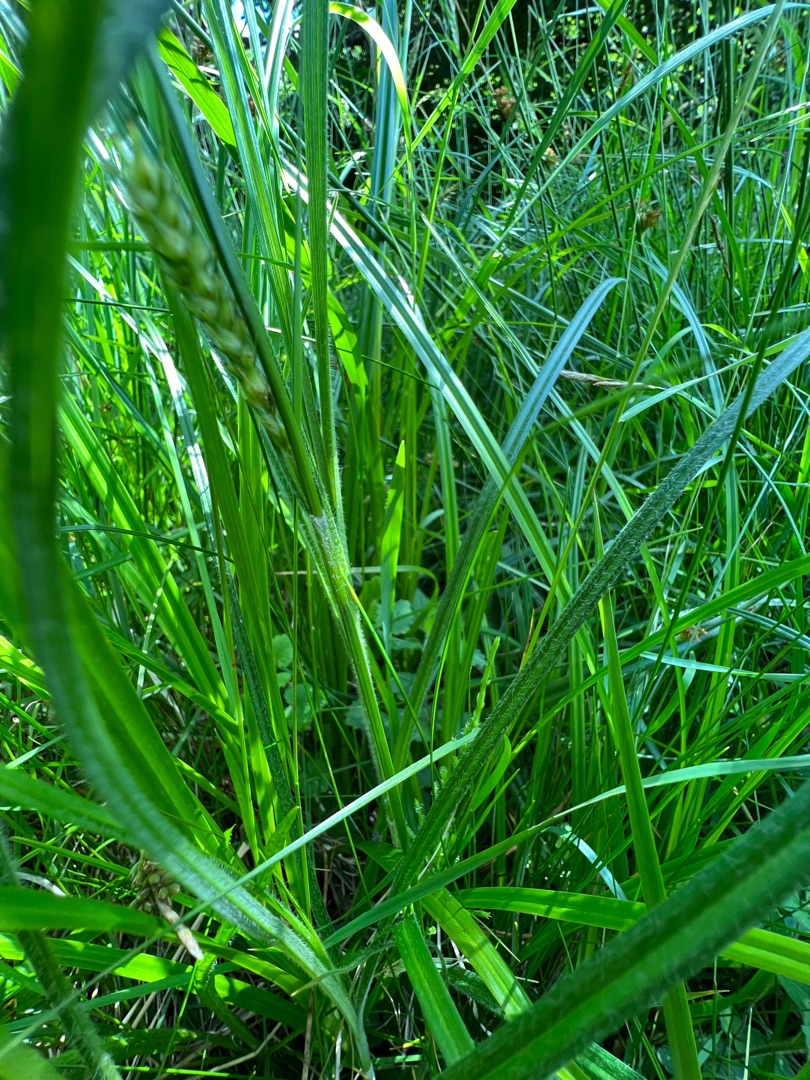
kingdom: Plantae
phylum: Tracheophyta
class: Liliopsida
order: Poales
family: Cyperaceae
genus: Carex
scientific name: Carex hirta
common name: Håret star
